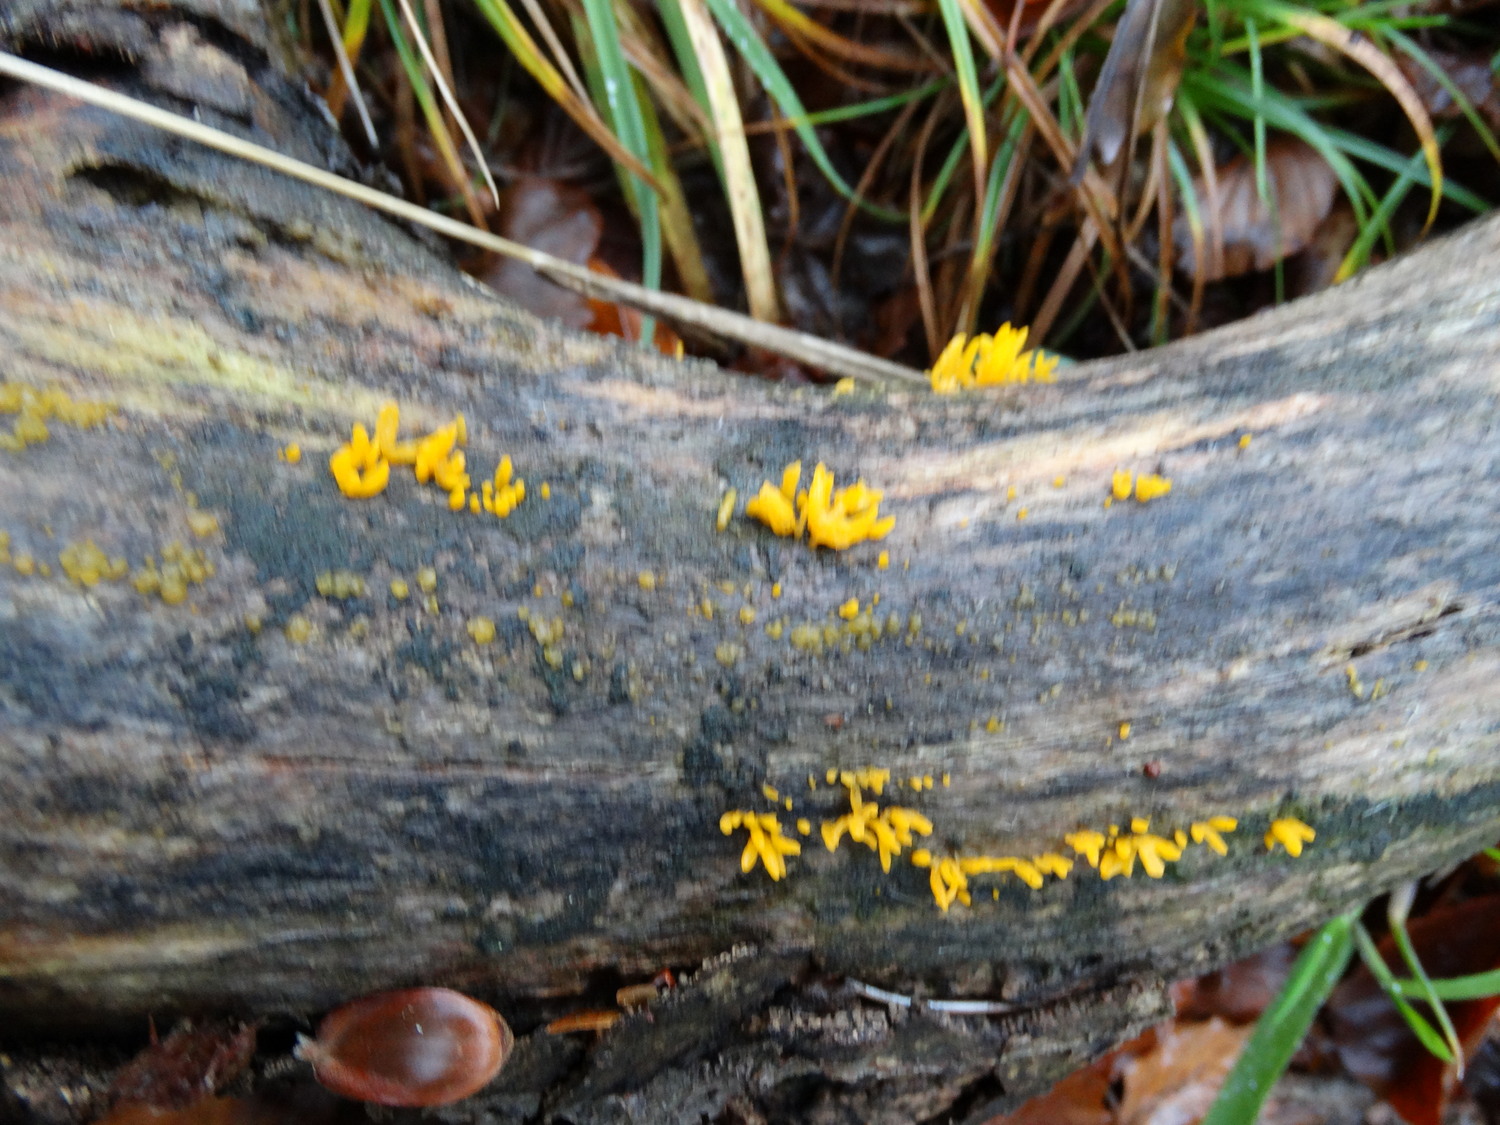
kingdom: Fungi
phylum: Basidiomycota
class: Dacrymycetes
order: Dacrymycetales
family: Dacrymycetaceae
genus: Calocera
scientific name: Calocera cornea
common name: liden guldgaffel
